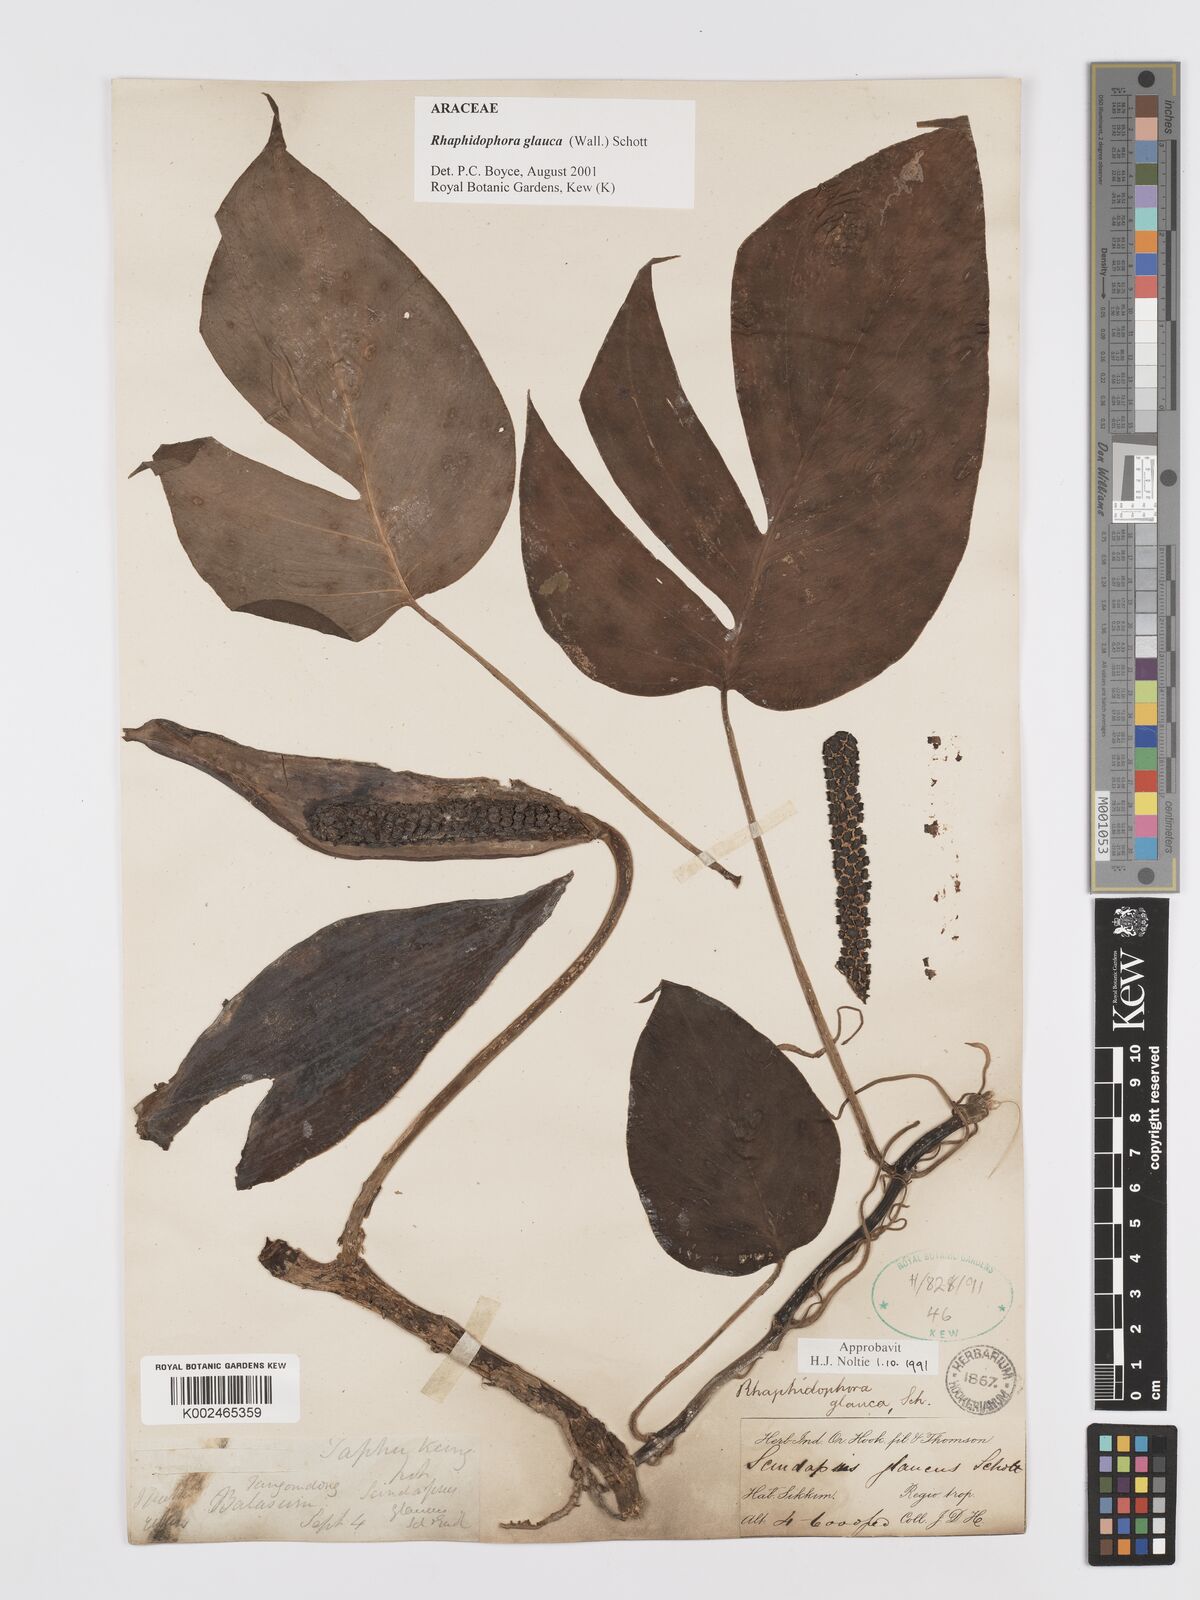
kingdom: Plantae
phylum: Tracheophyta
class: Liliopsida
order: Alismatales
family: Araceae
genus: Rhaphidophora
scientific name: Rhaphidophora glauca
